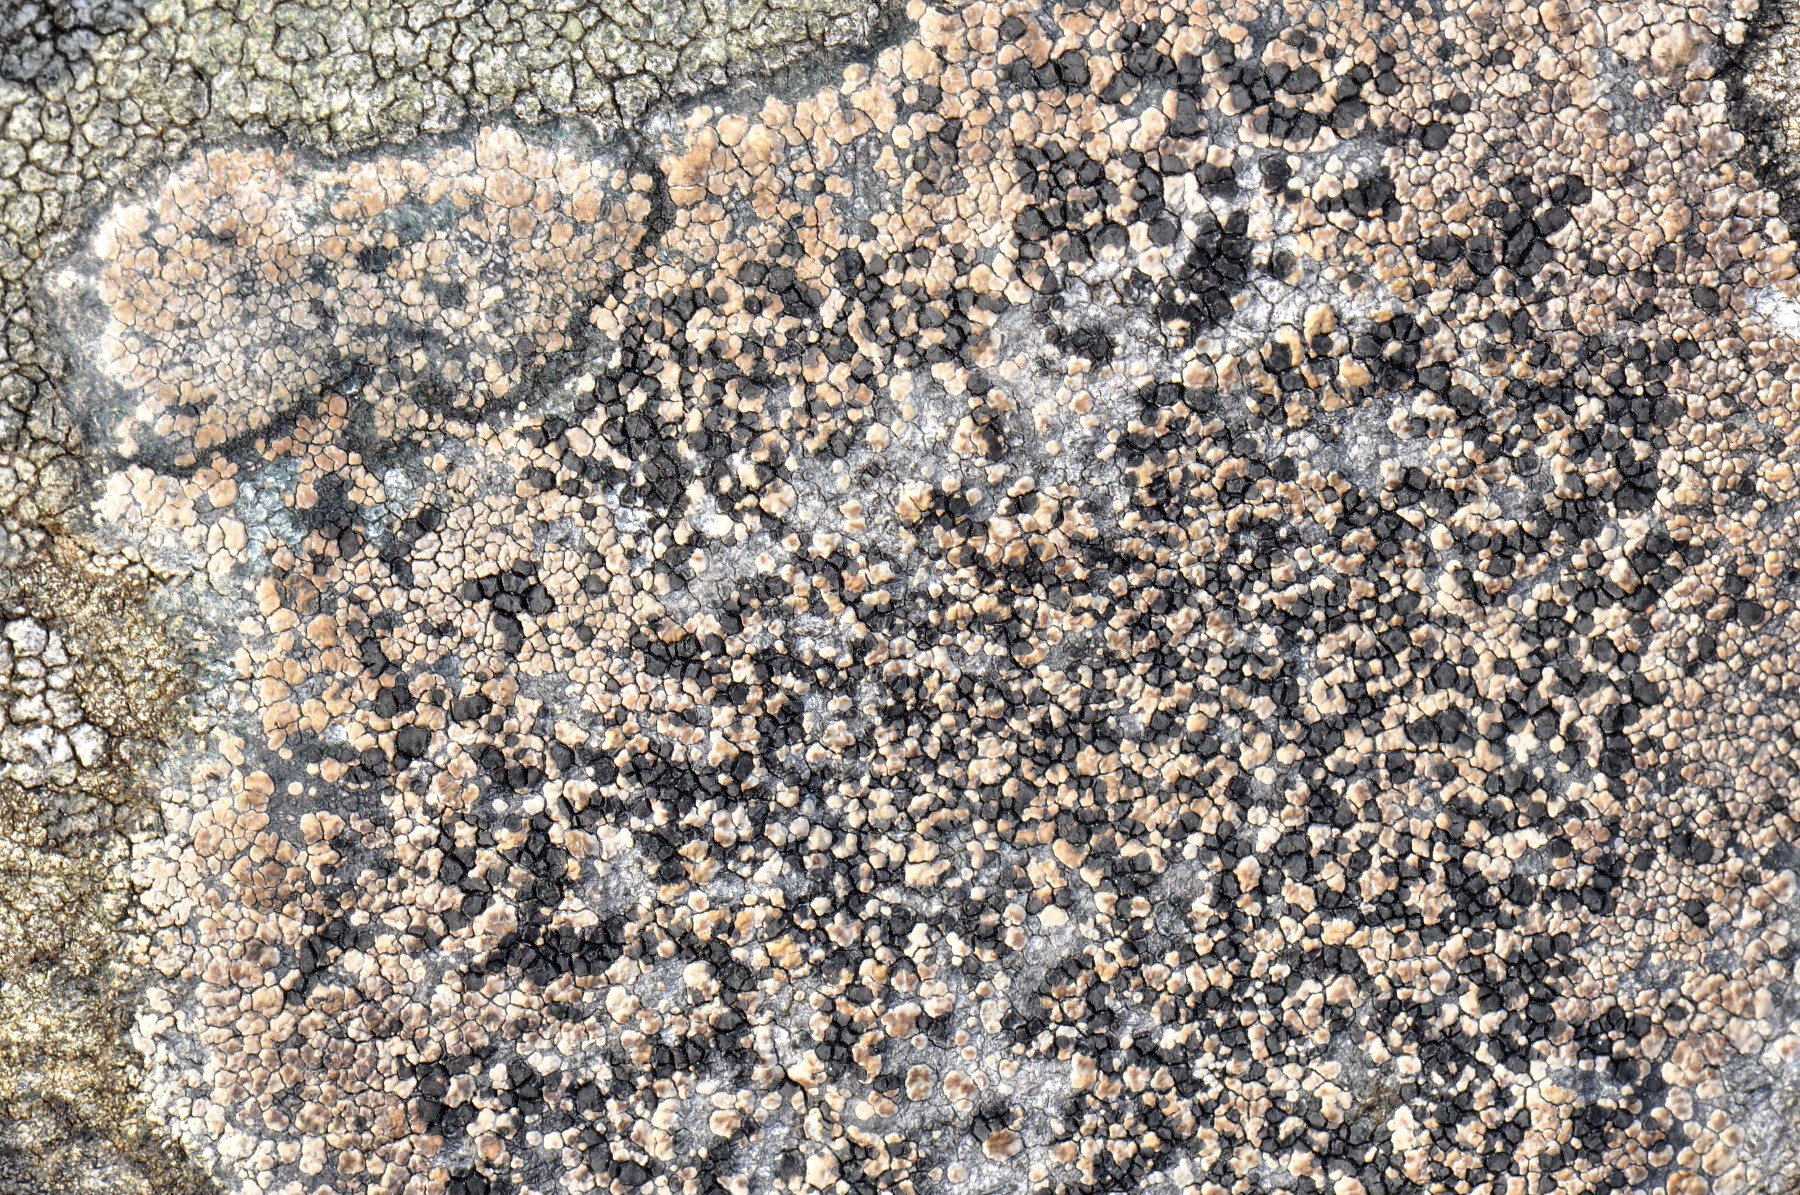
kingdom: Fungi
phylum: Ascomycota
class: Lecanoromycetes
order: Lecideales
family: Lecideaceae
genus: Lecidea
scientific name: Lecidea fuscoatra
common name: rudret skivelav
